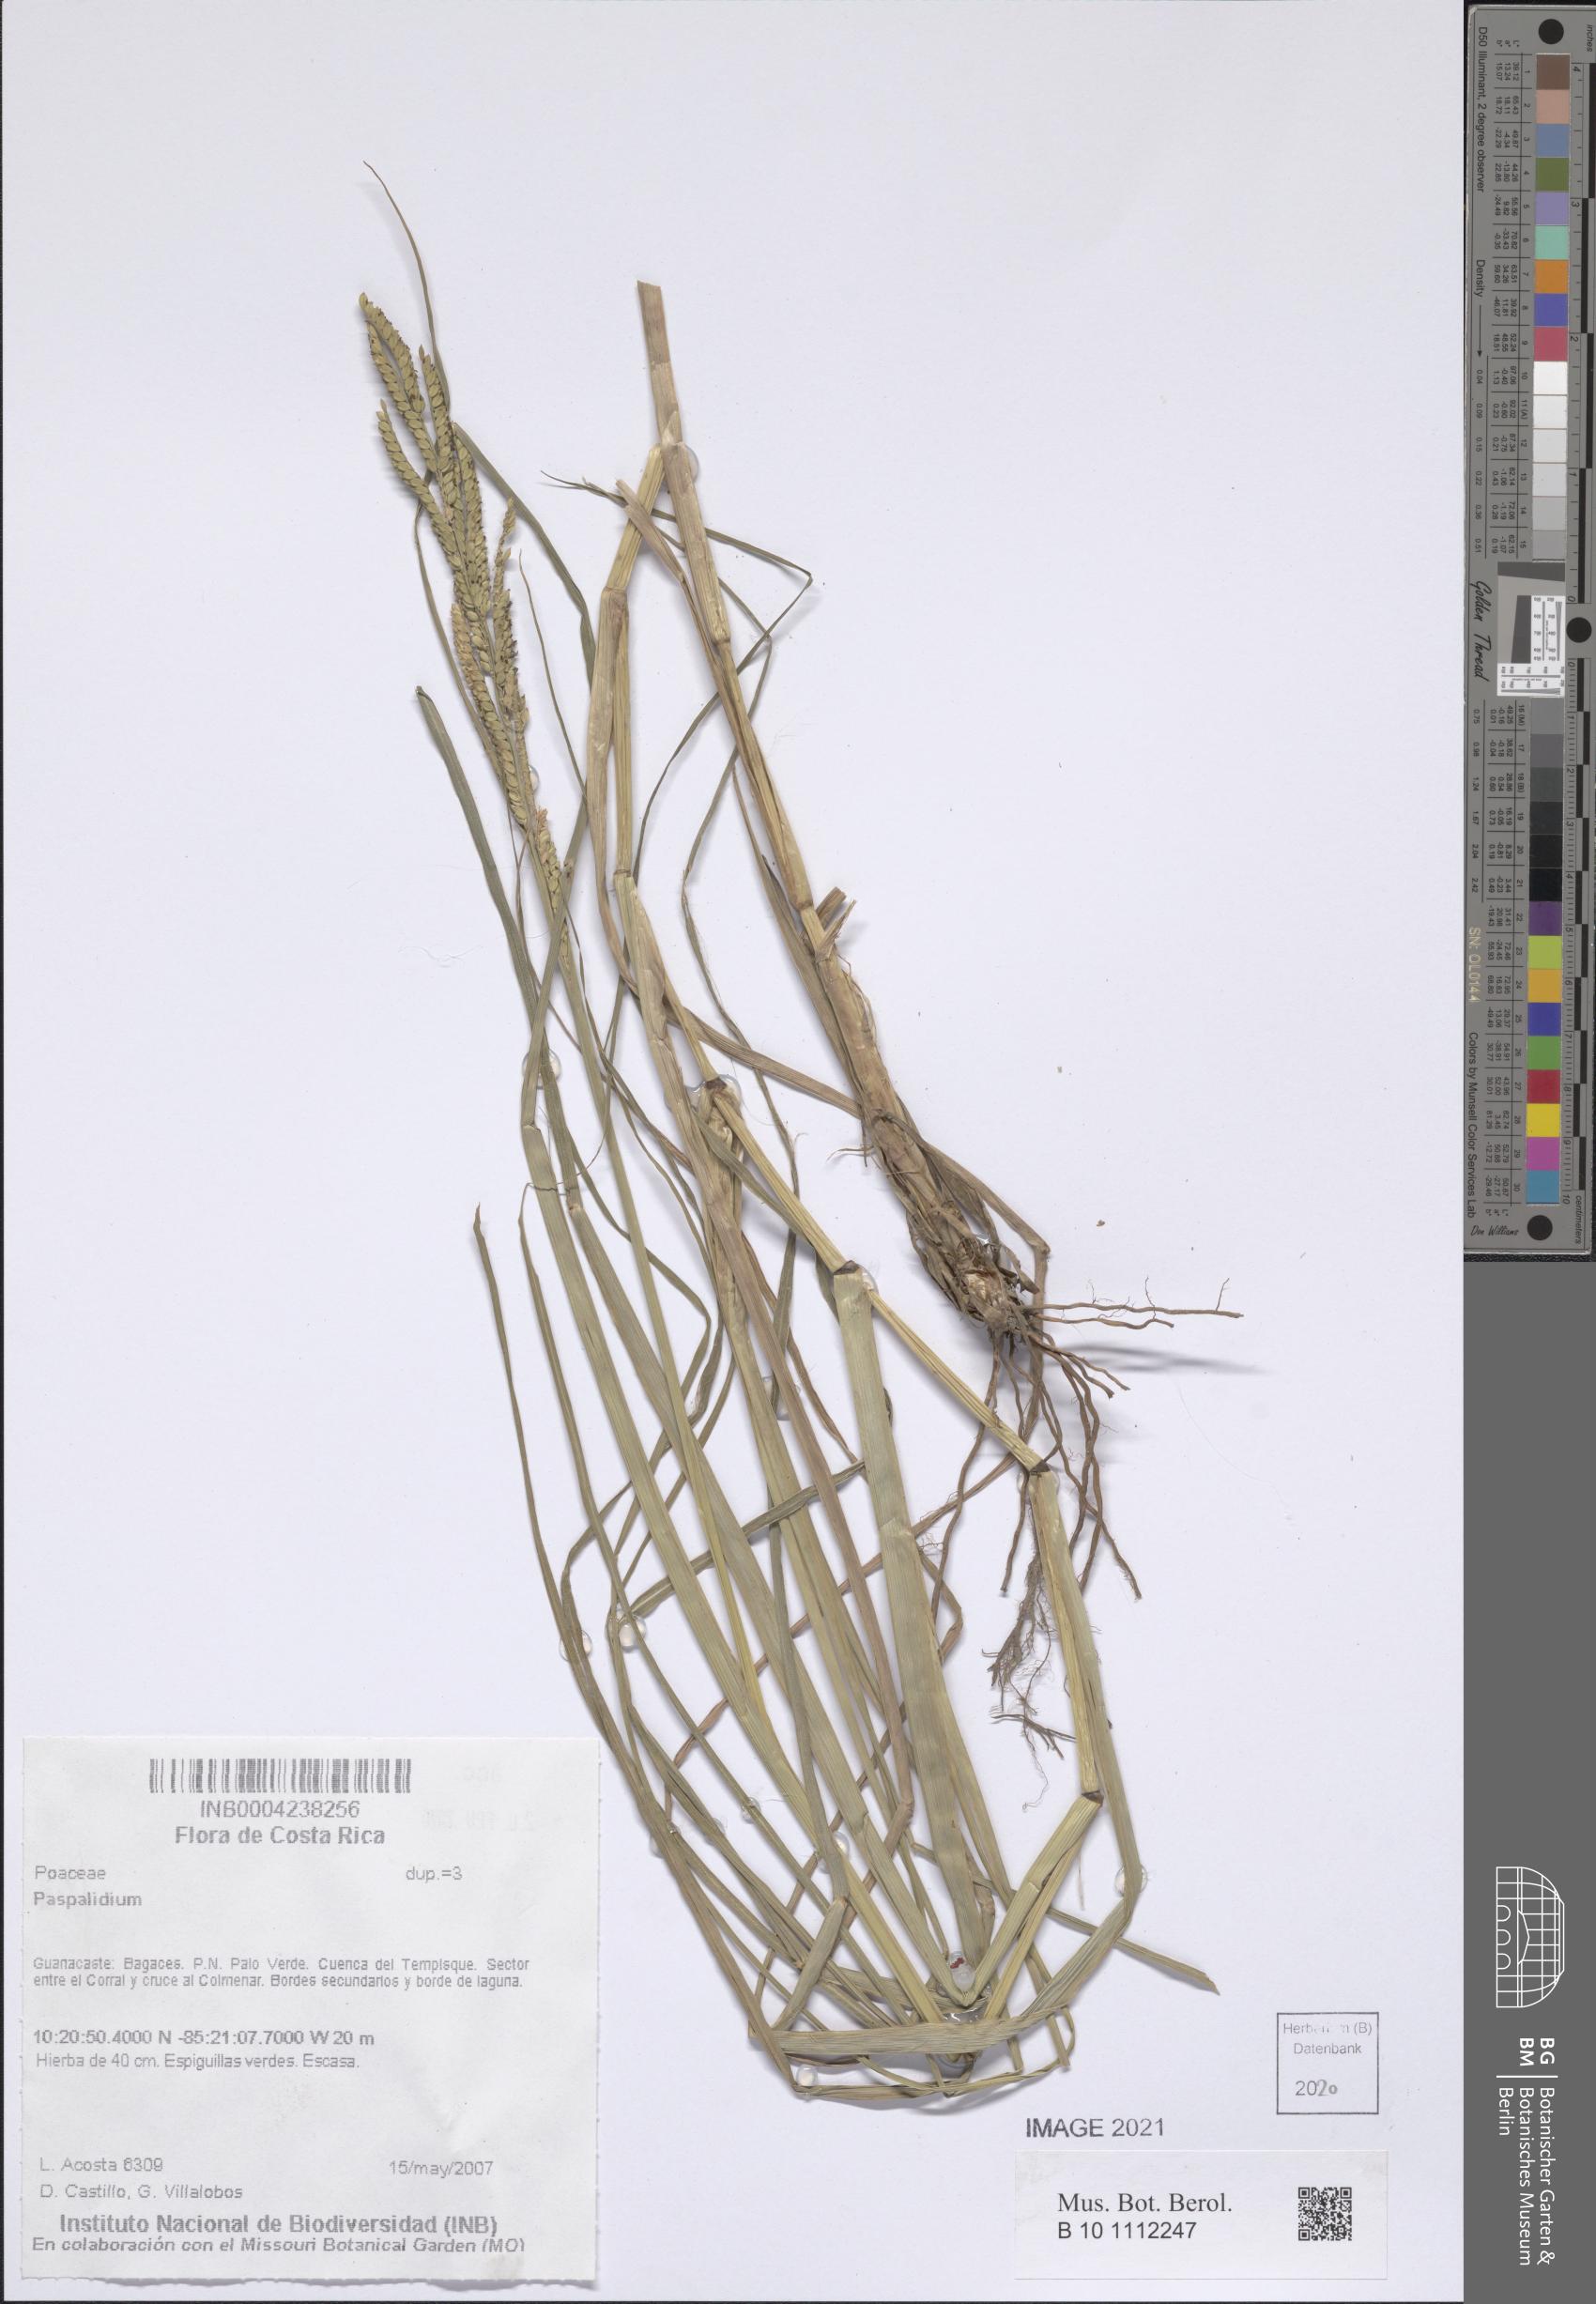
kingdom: Plantae
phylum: Tracheophyta
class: Liliopsida
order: Poales
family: Poaceae
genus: Setaria
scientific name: Setaria
